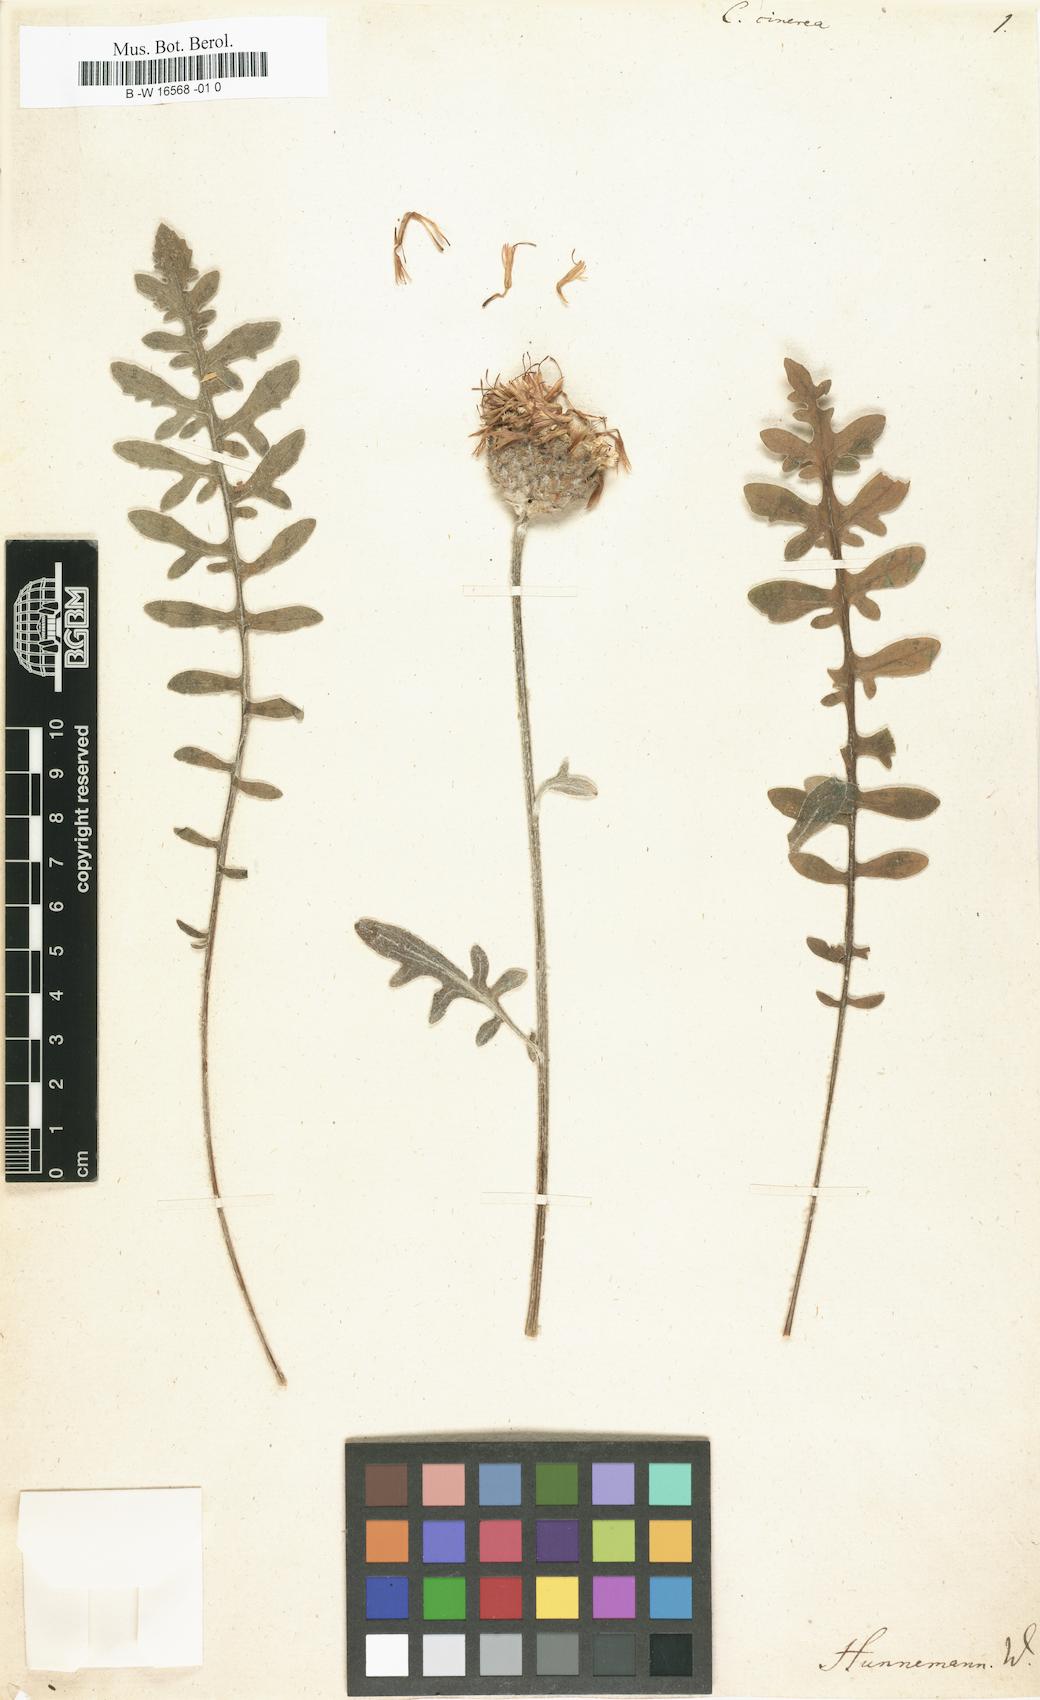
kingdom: Plantae
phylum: Tracheophyta
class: Magnoliopsida
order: Asterales
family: Asteraceae
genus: Centaurea
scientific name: Centaurea
